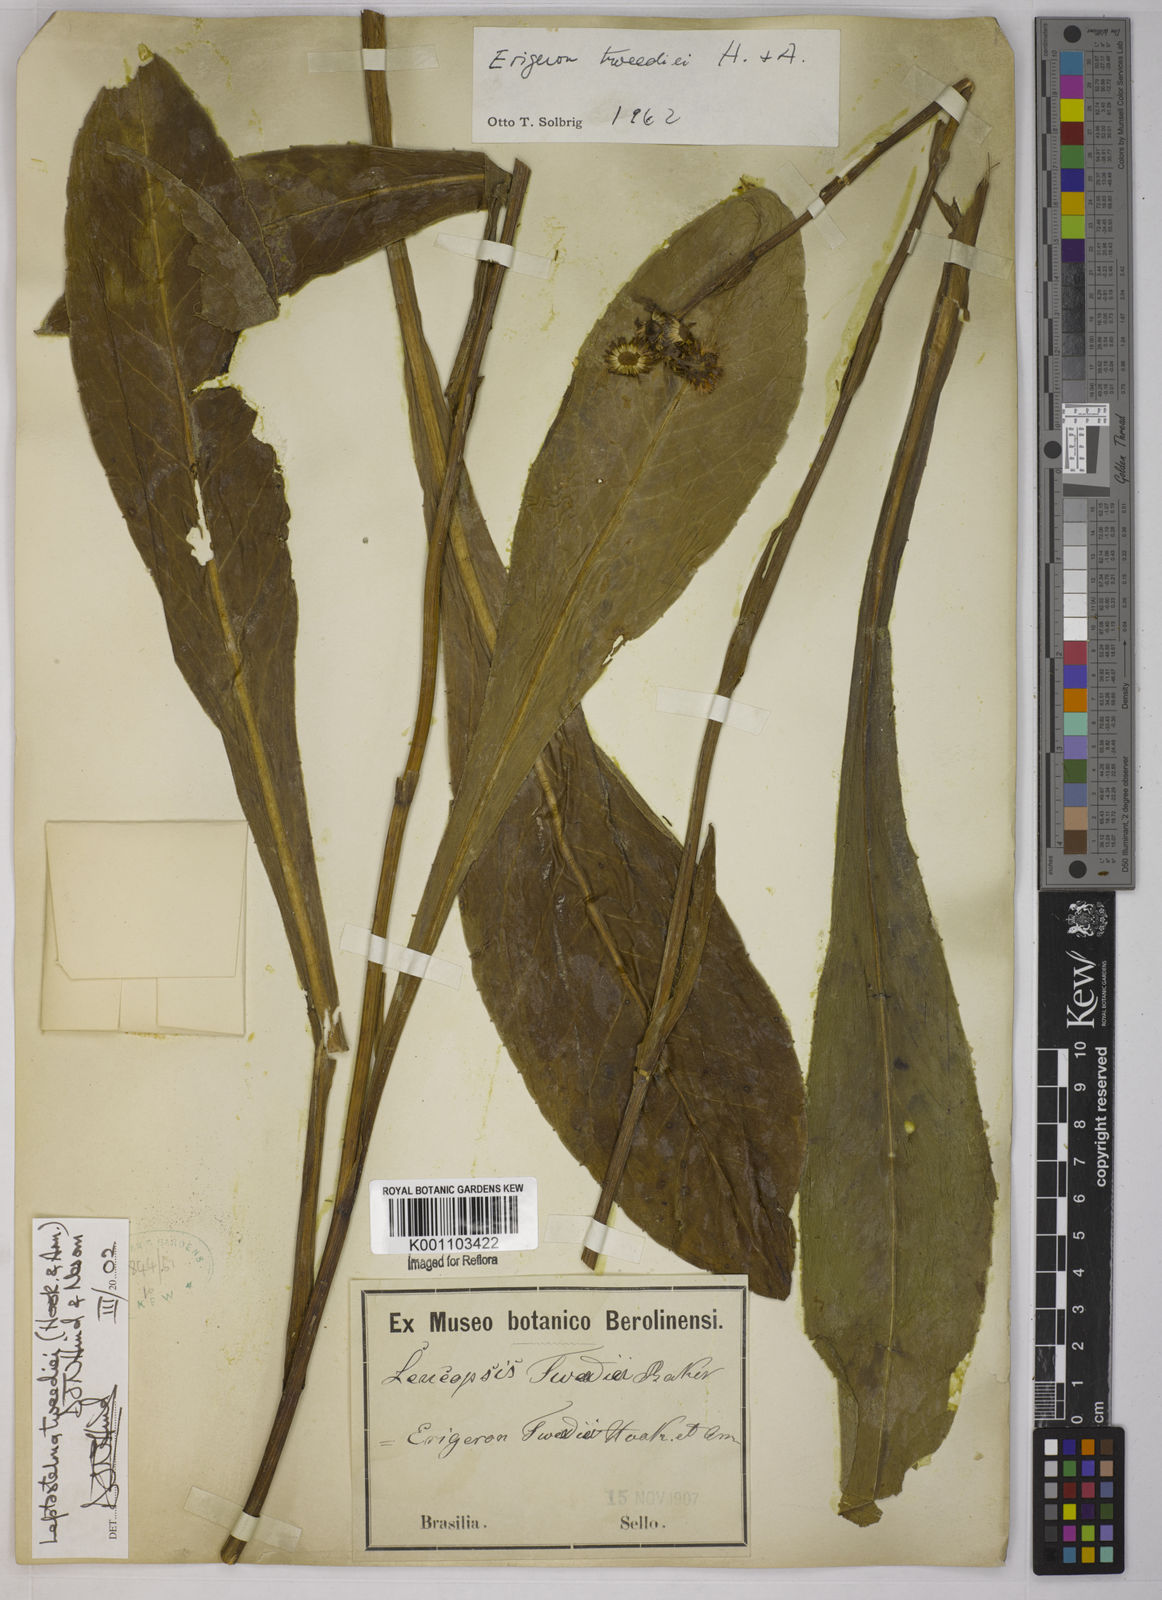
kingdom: Plantae
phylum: Tracheophyta
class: Magnoliopsida
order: Asterales
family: Asteraceae
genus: Leptostelma
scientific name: Leptostelma tweediei
